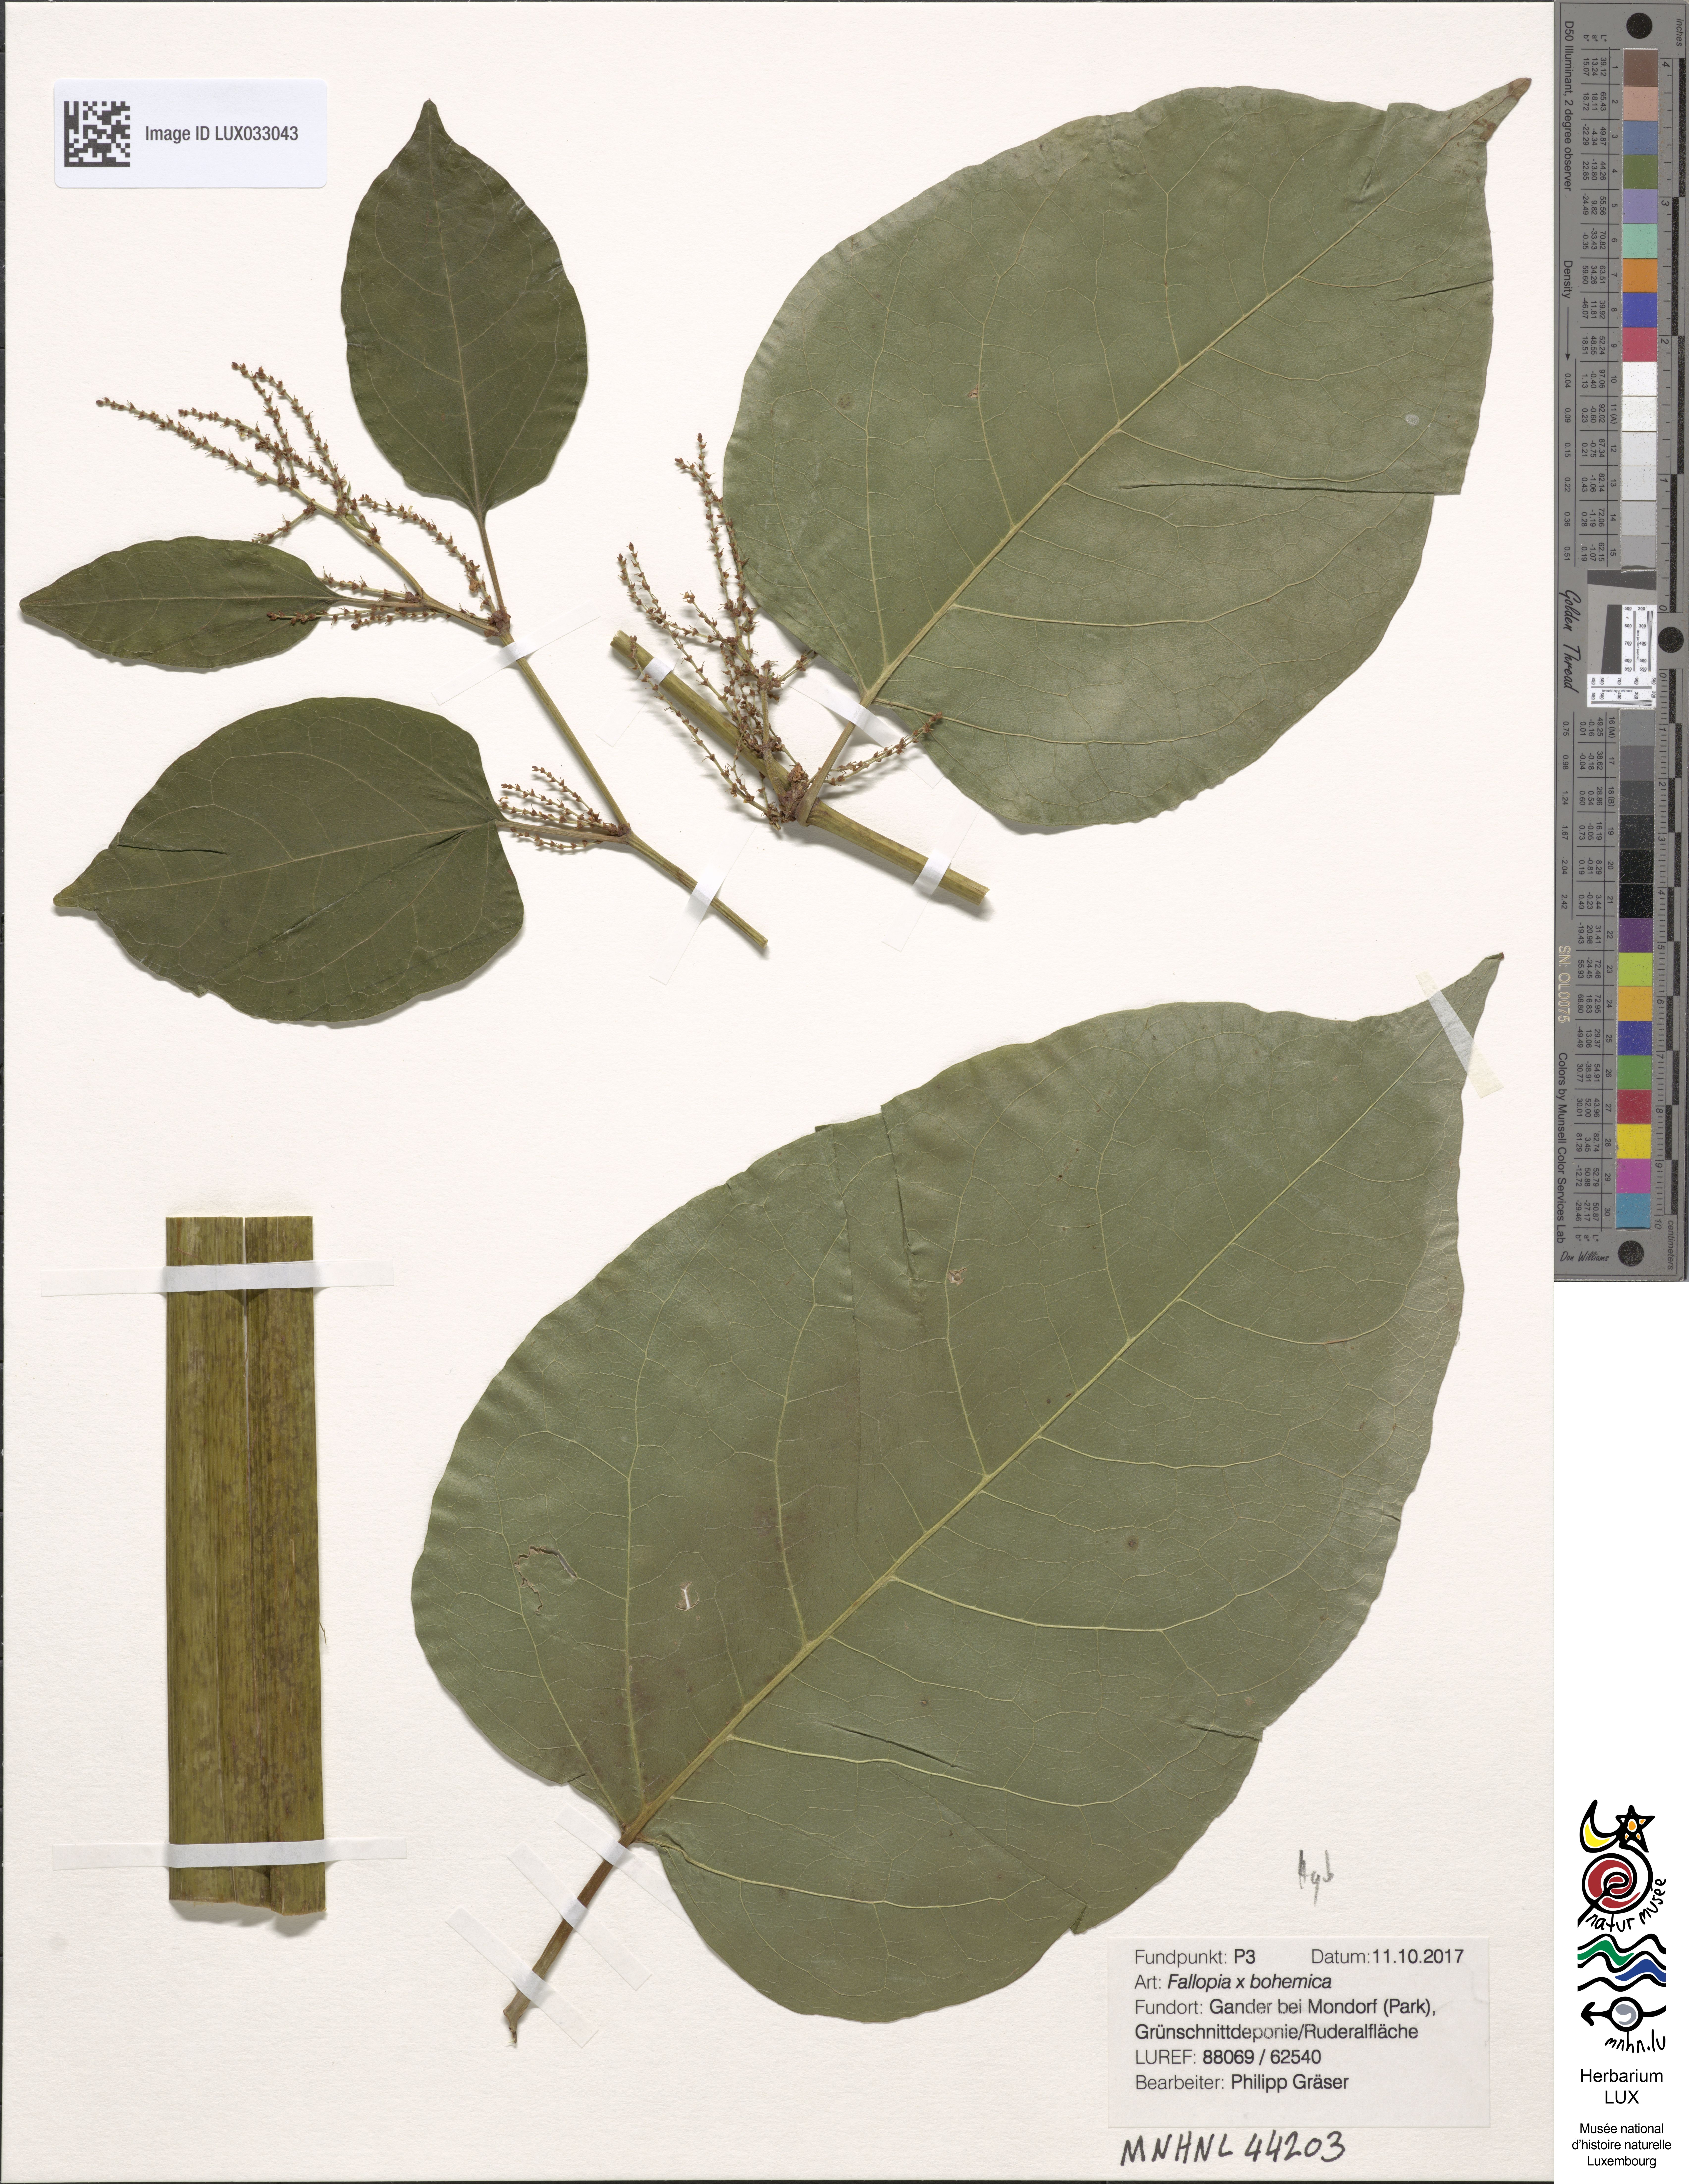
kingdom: Plantae
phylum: Tracheophyta
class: Magnoliopsida
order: Caryophyllales
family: Polygonaceae
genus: Reynoutria
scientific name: Reynoutria bohemica
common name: Bohemian knotweed
